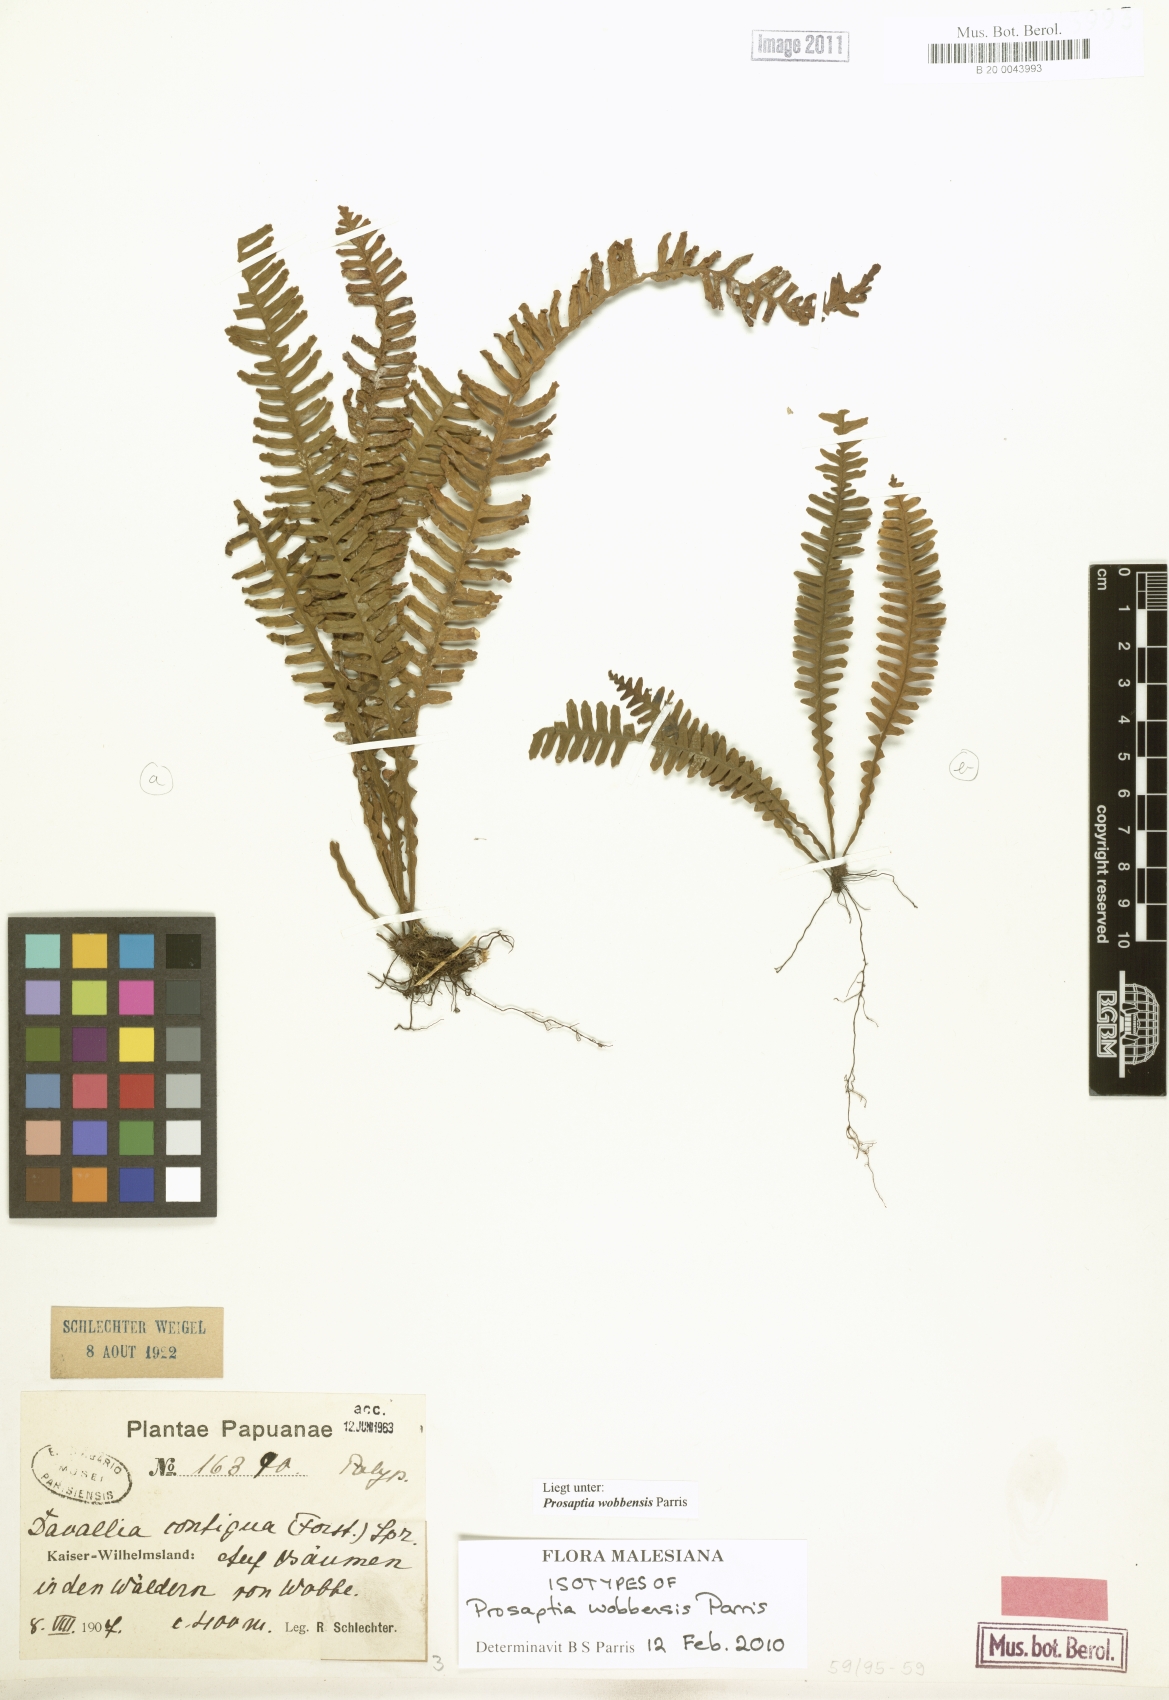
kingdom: Plantae
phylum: Tracheophyta
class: Polypodiopsida
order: Polypodiales
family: Polypodiaceae
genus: Prosaptia
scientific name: Prosaptia wobbensis
